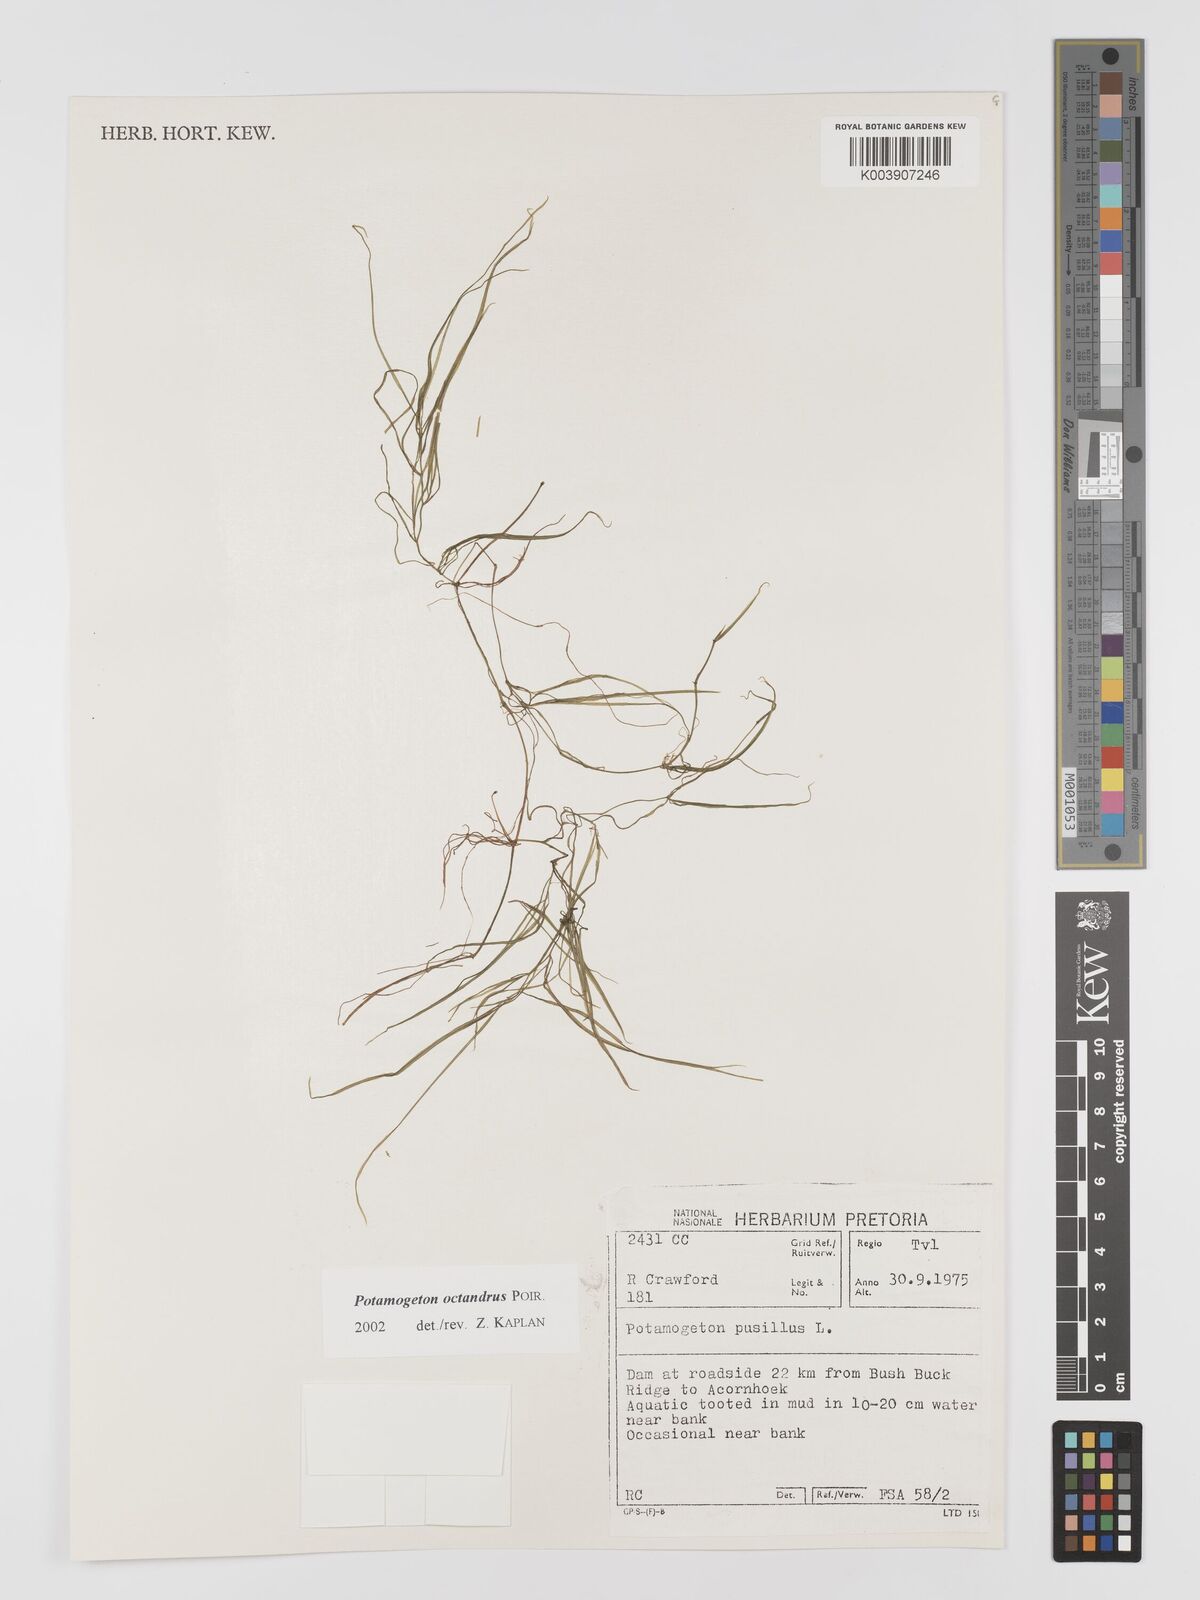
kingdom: Plantae
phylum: Tracheophyta
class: Liliopsida
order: Alismatales
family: Potamogetonaceae
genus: Potamogeton
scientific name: Potamogeton octandrus
